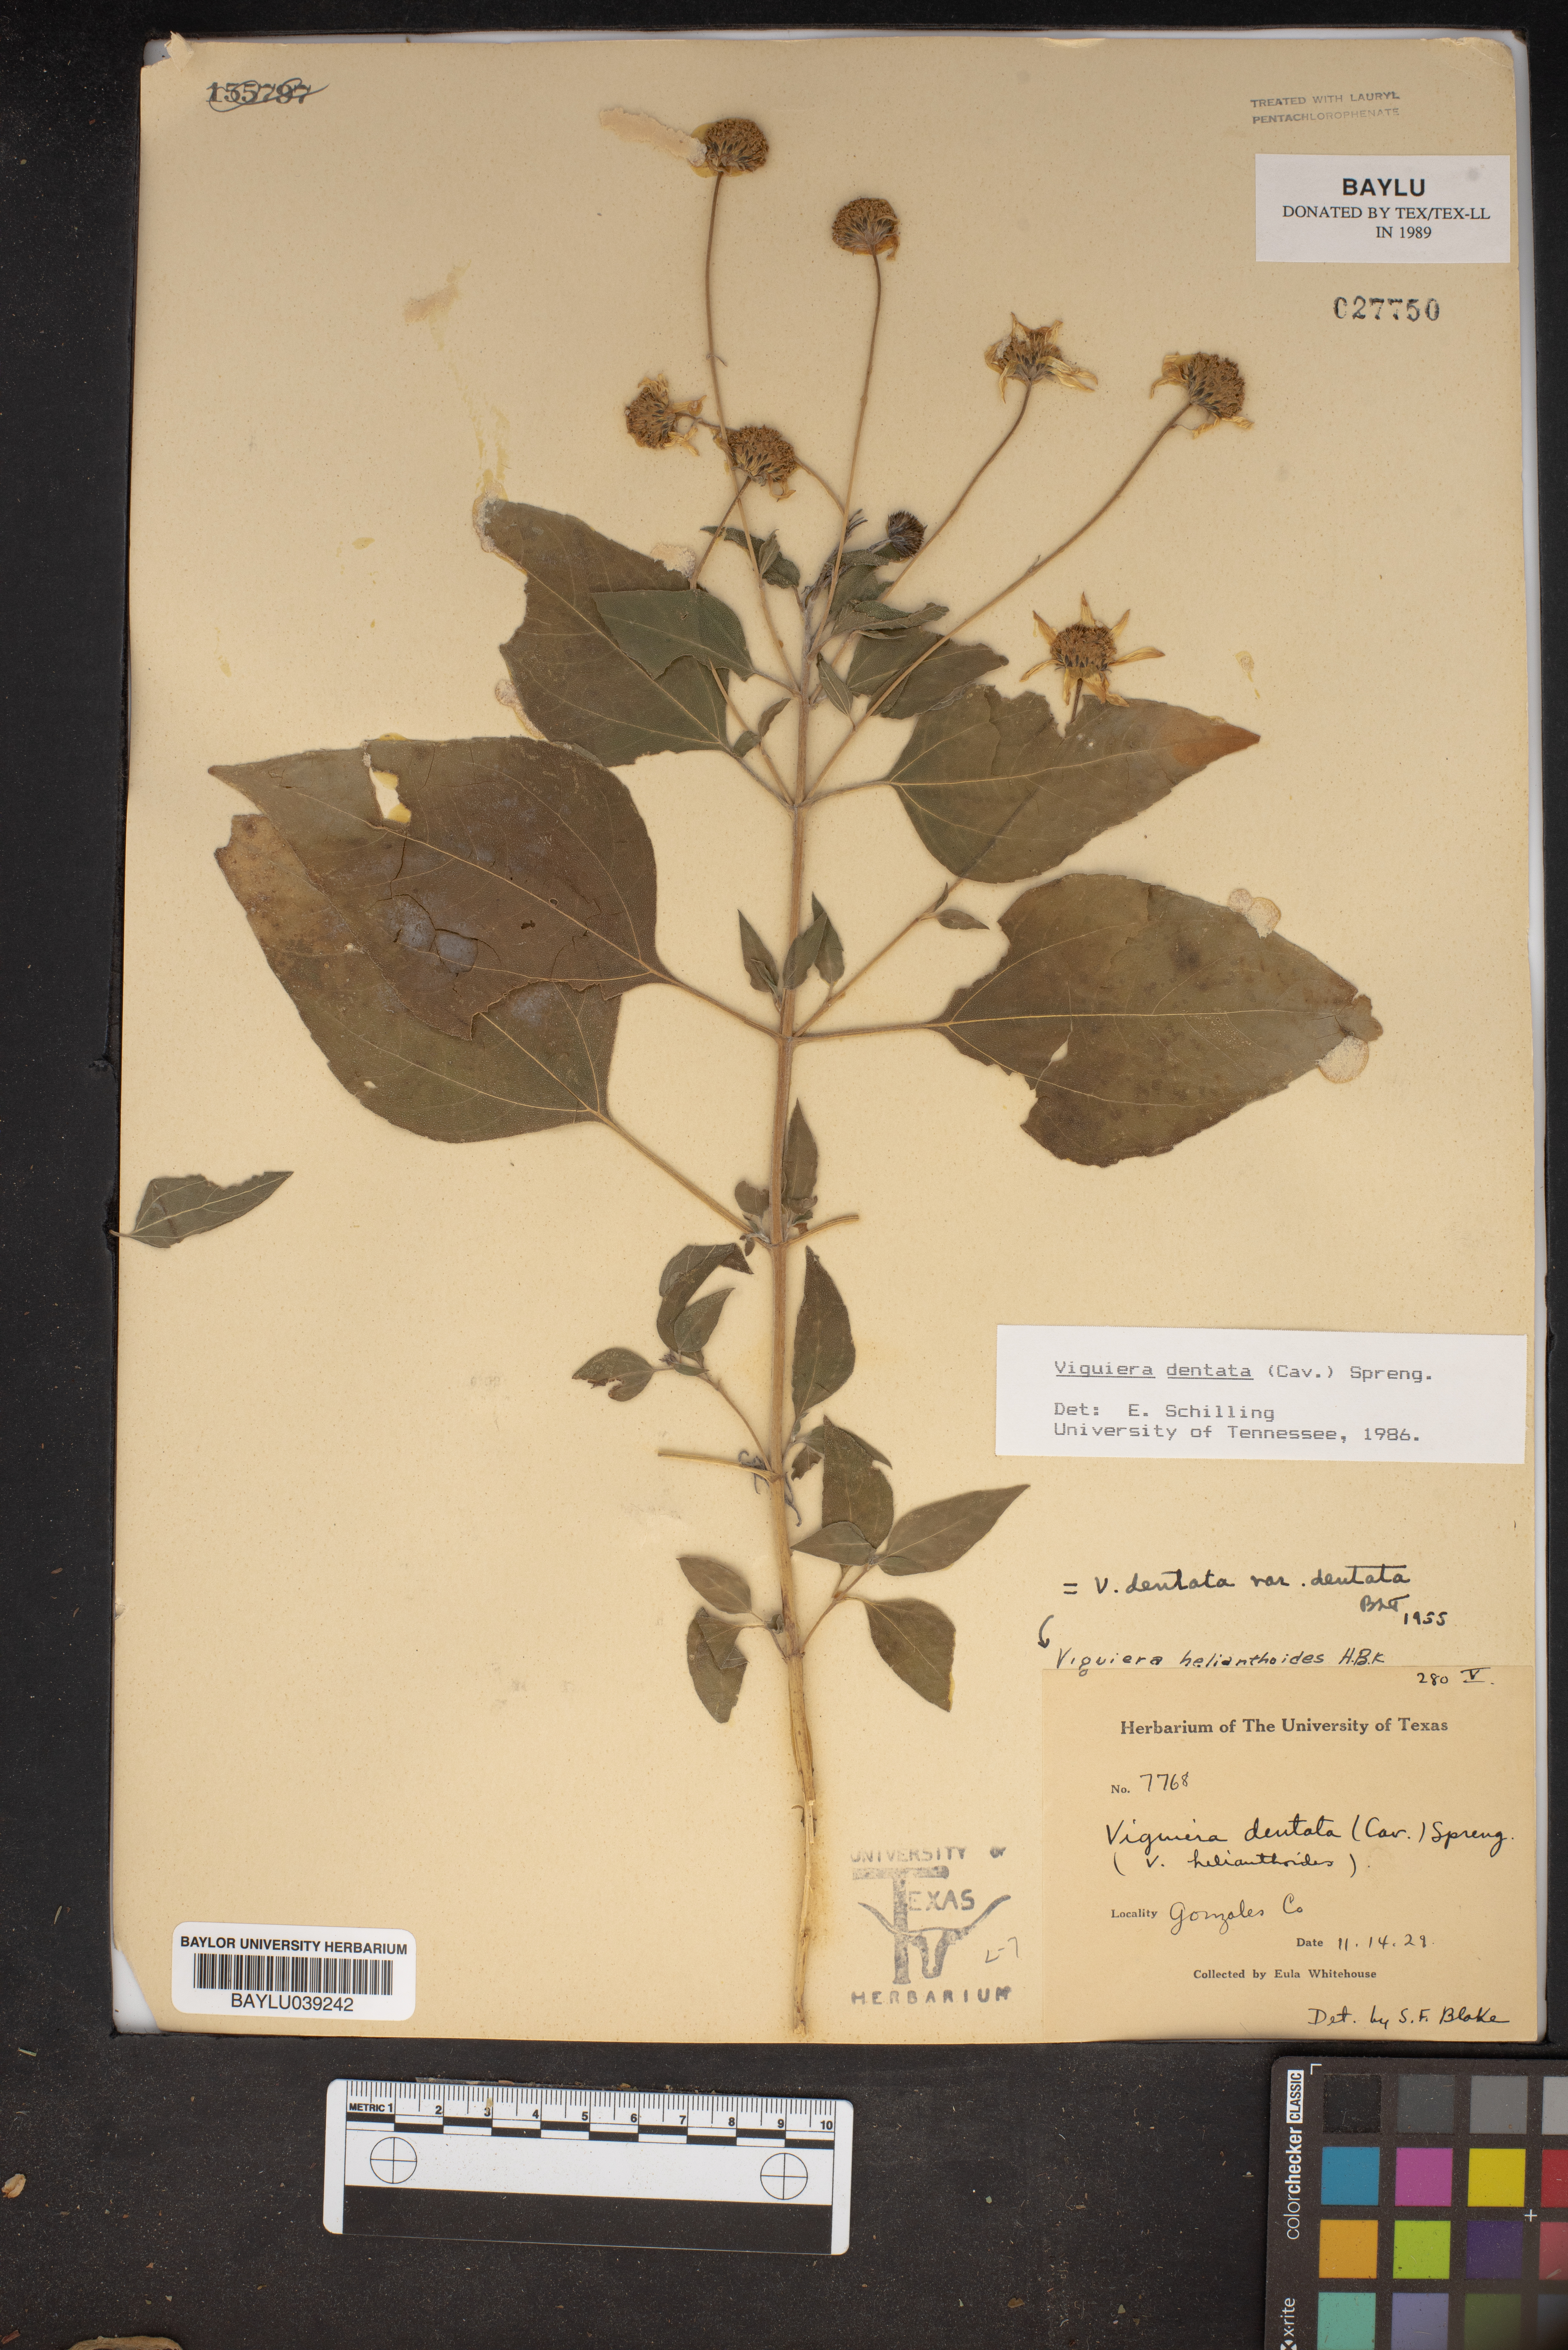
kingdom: Plantae
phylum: Tracheophyta
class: Magnoliopsida
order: Asterales
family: Asteraceae
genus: Viguiera
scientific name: Viguiera dentata
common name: Toothleaf
